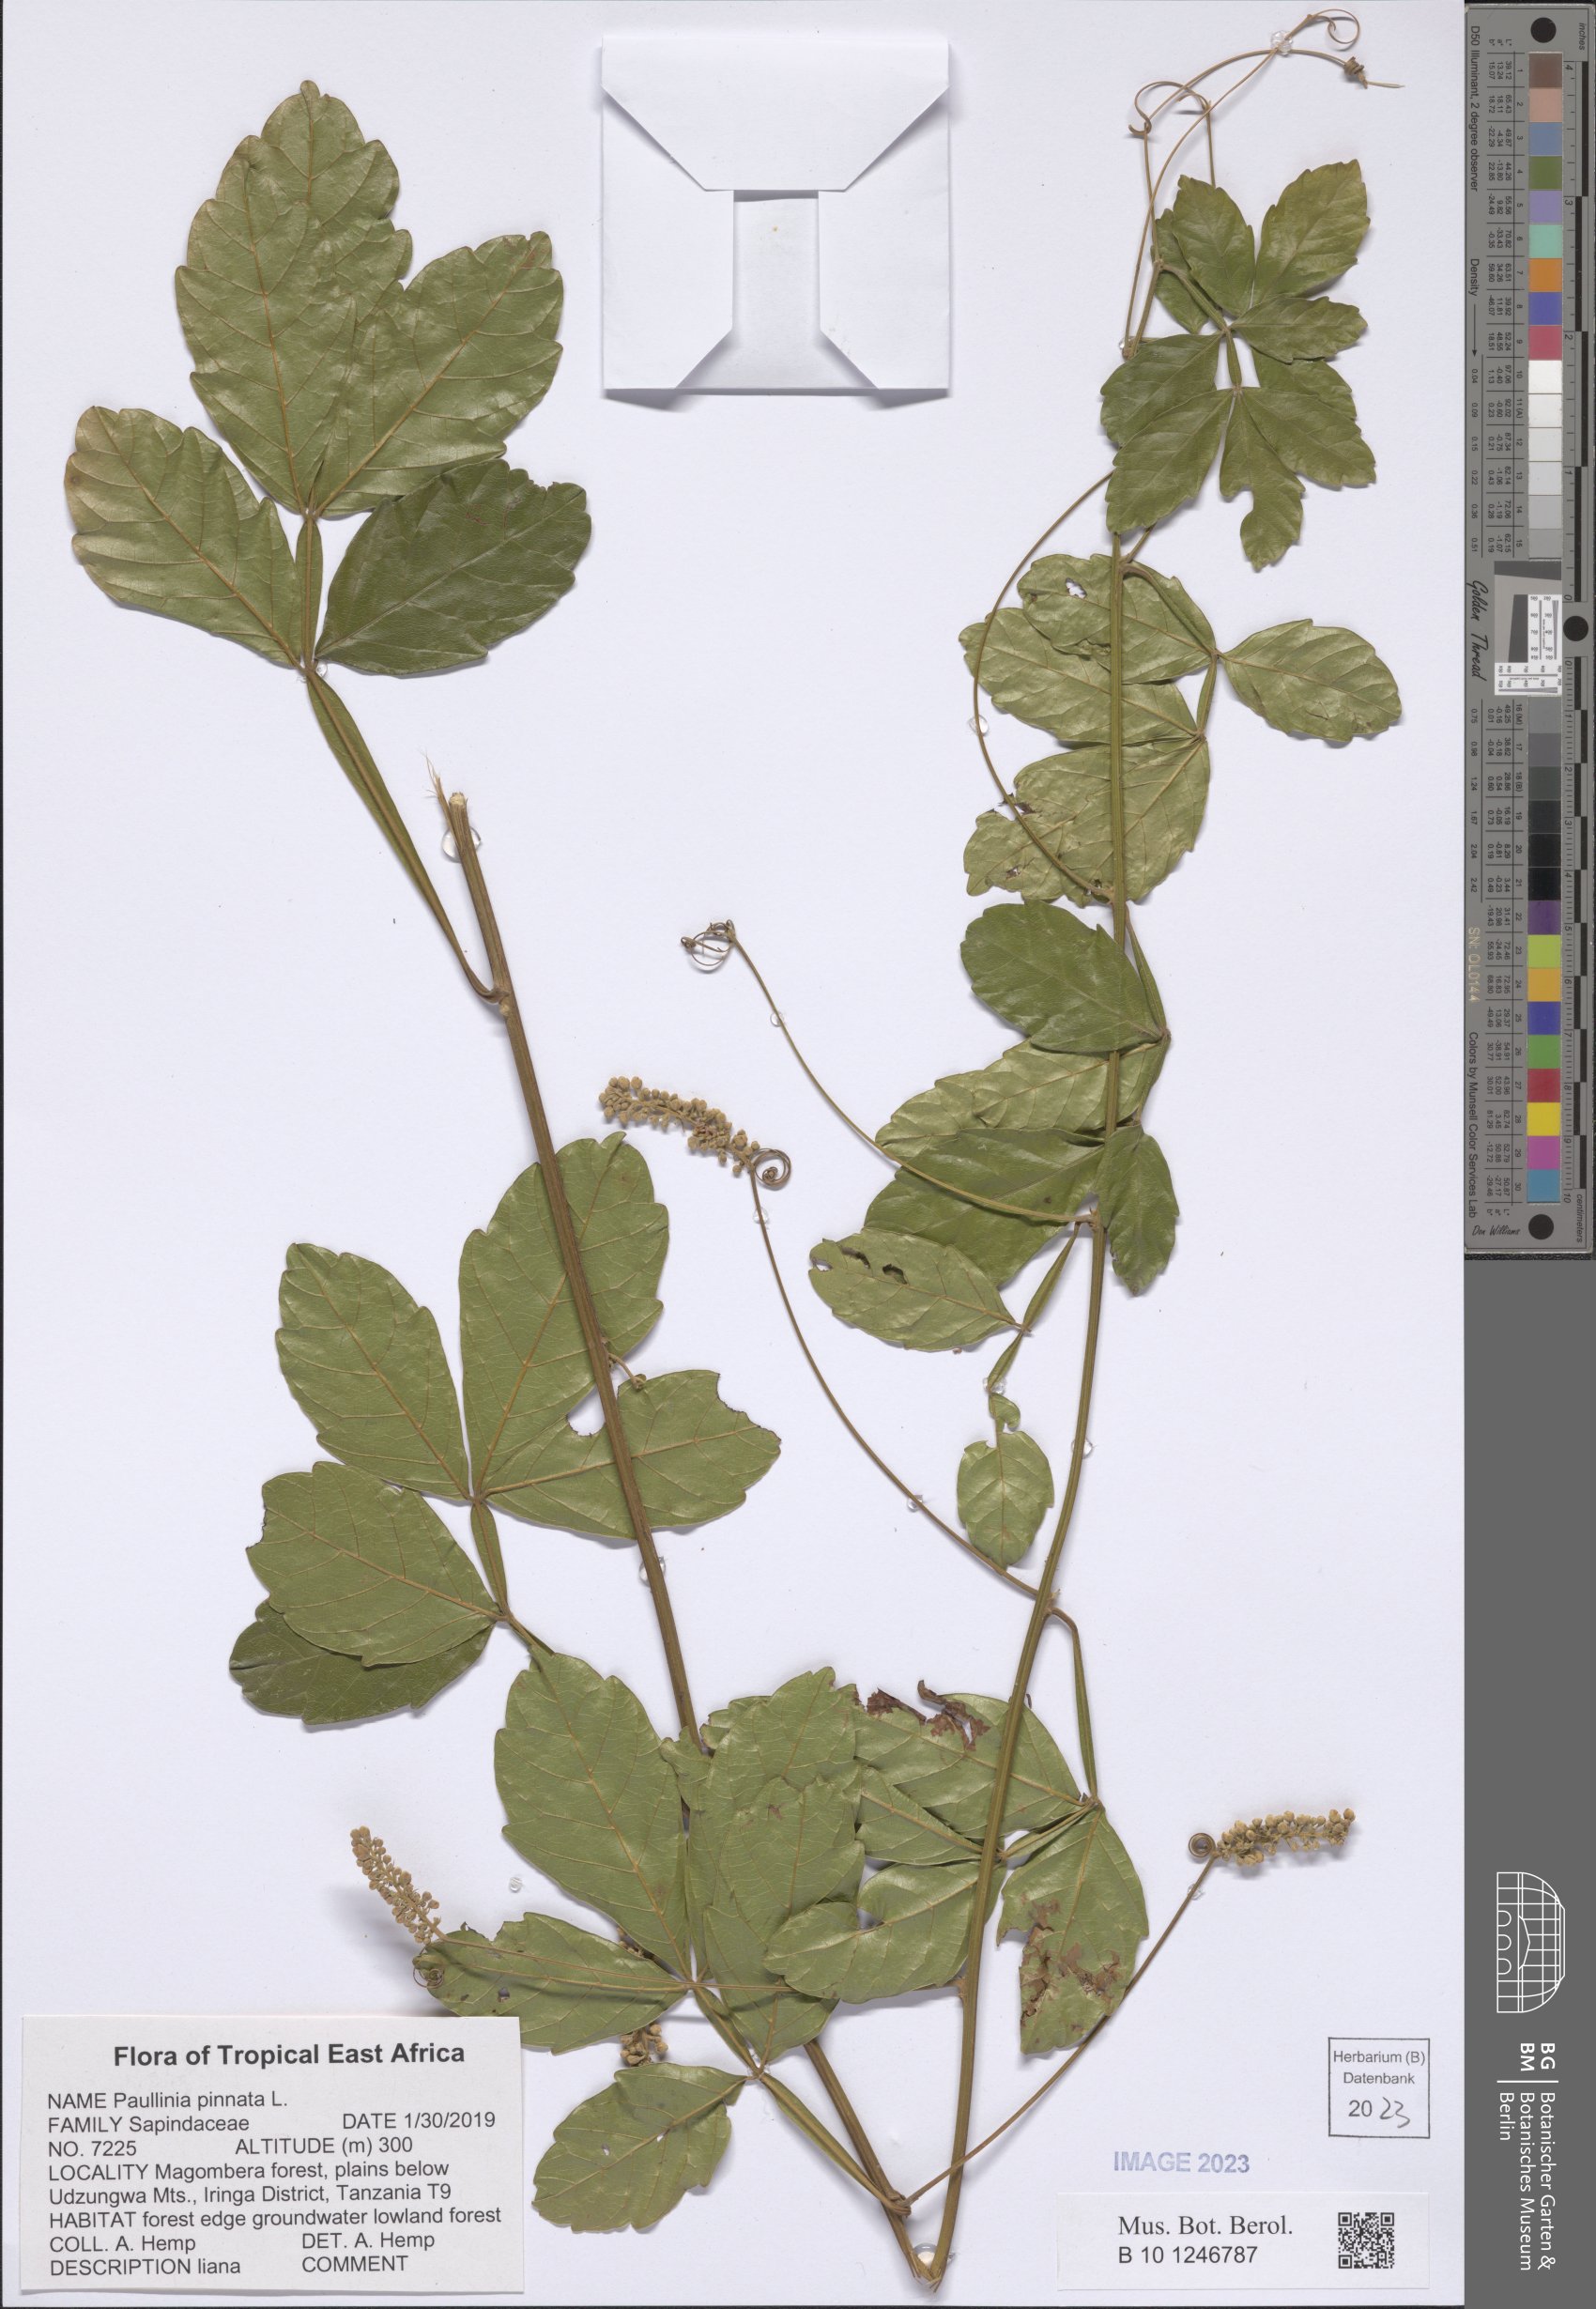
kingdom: Plantae
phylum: Tracheophyta
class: Magnoliopsida
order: Sapindales
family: Sapindaceae
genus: Paullinia
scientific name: Paullinia pinnata
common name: Barbasco
